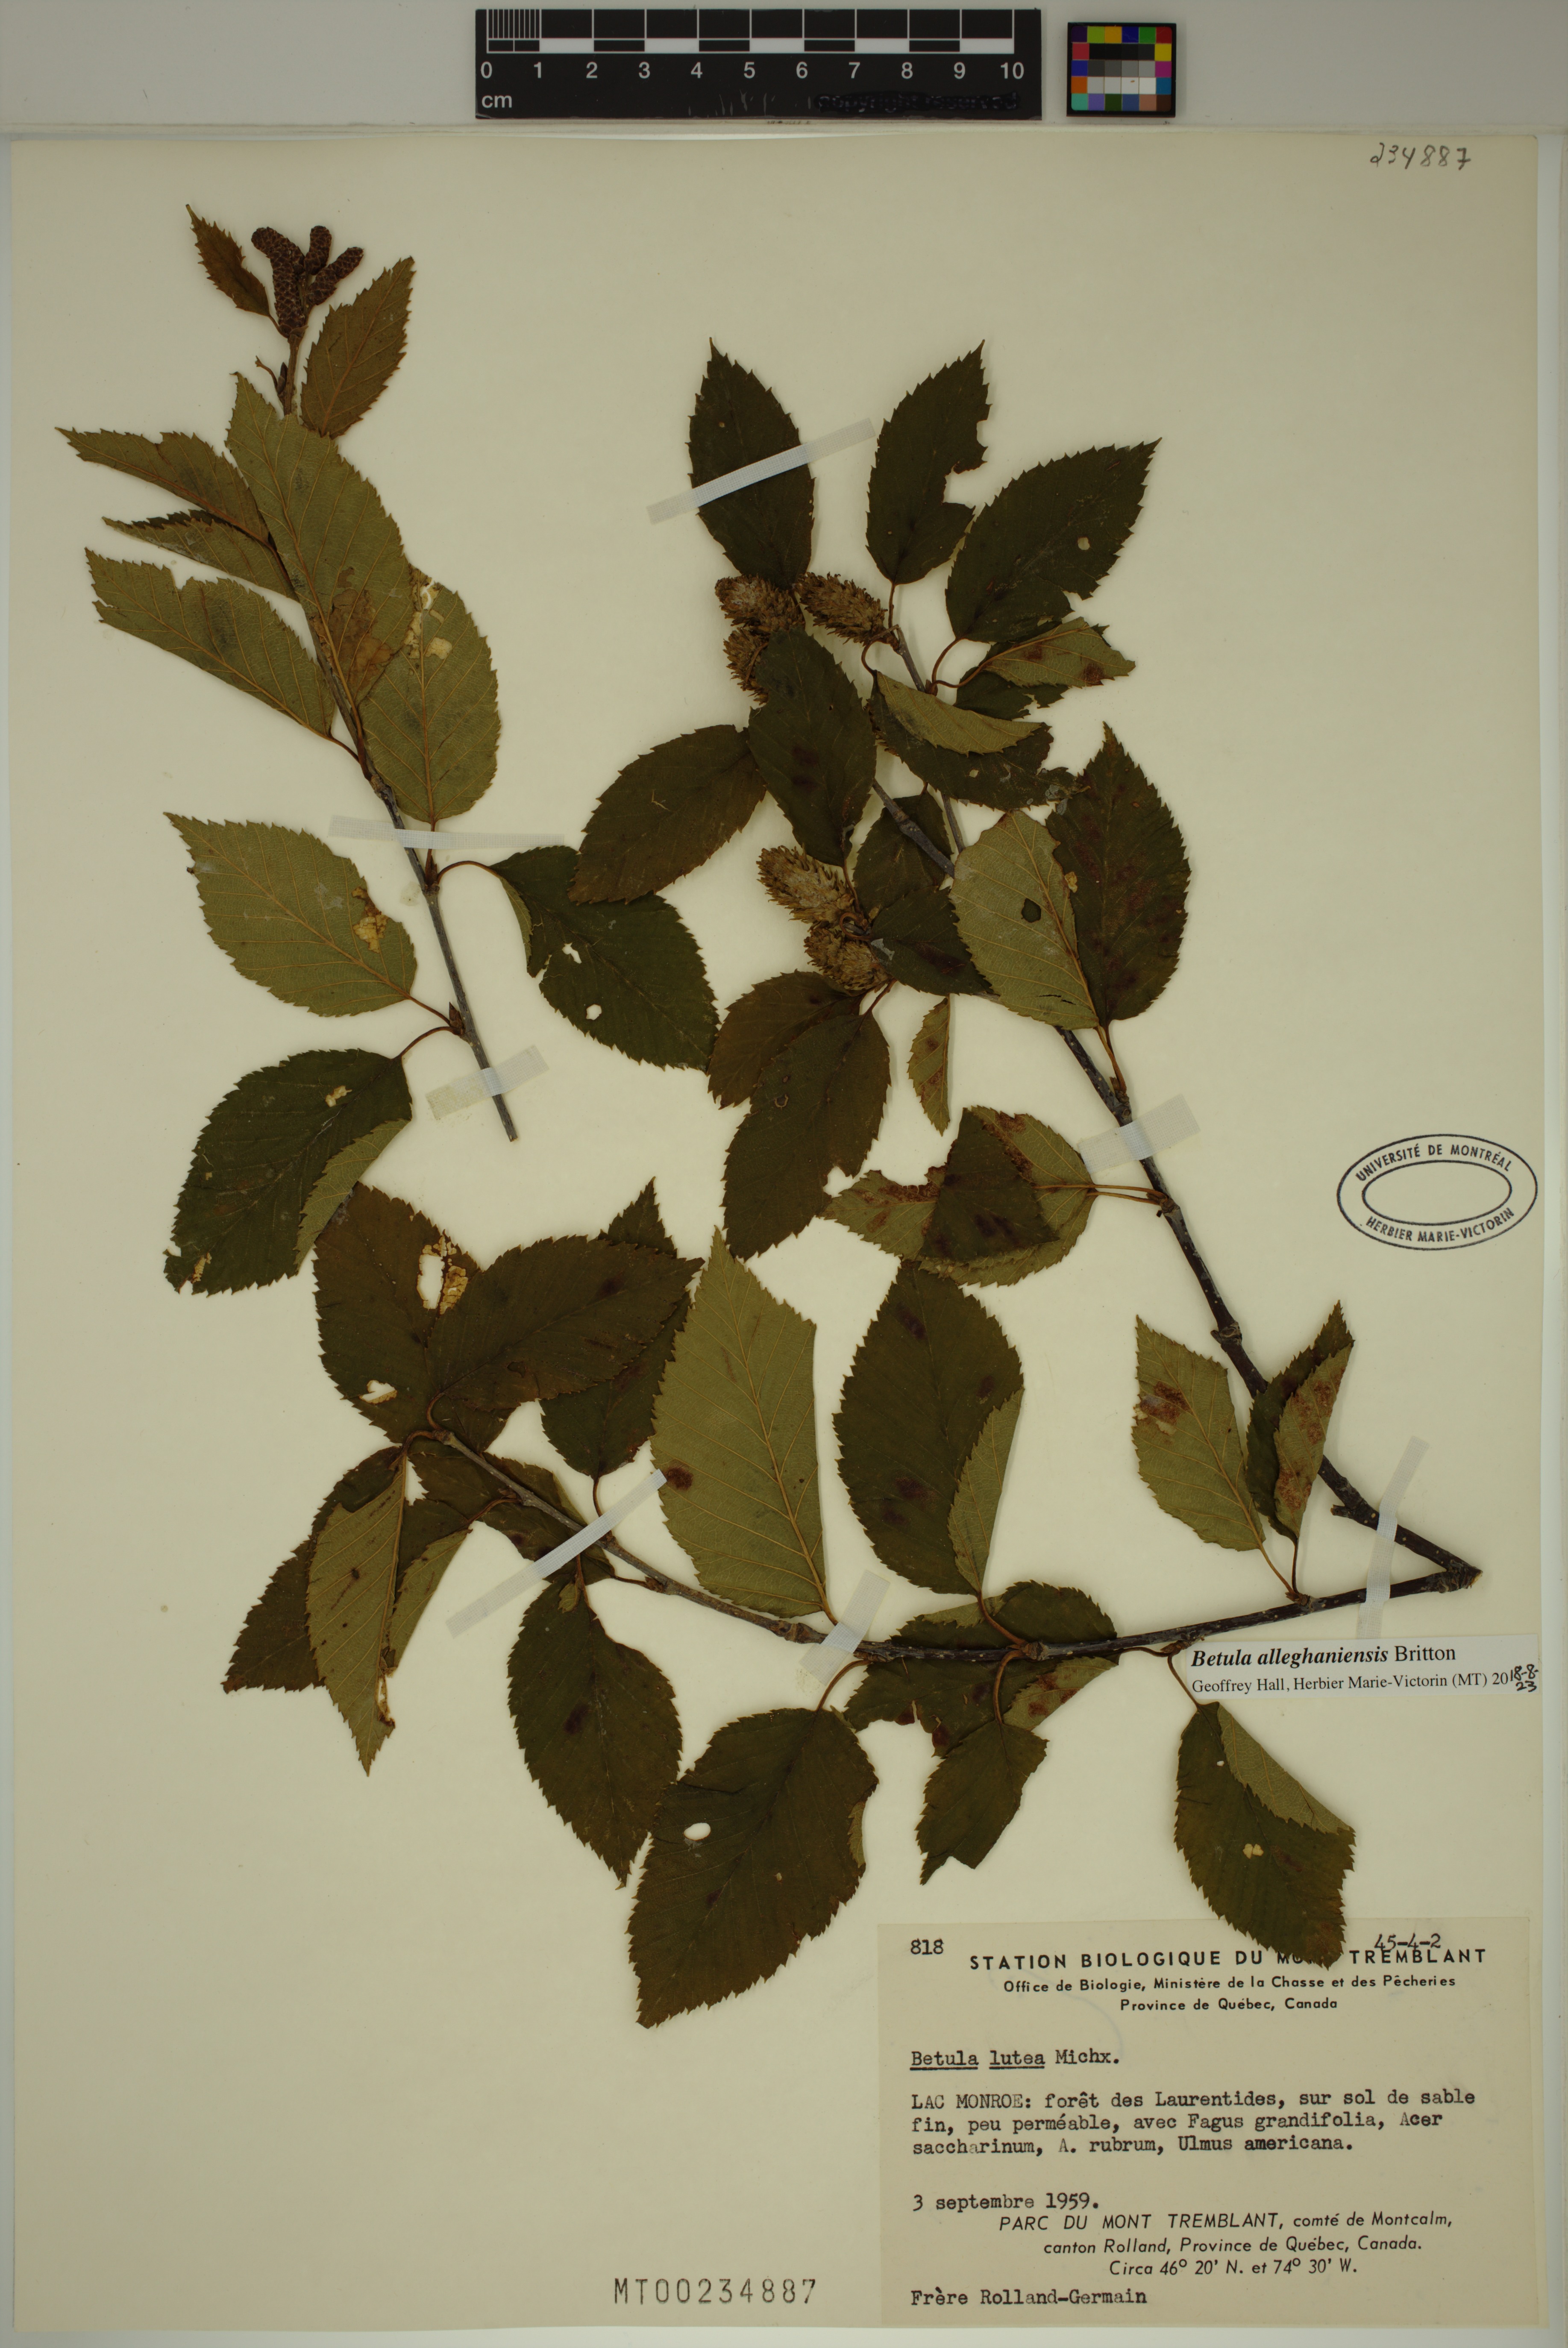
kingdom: Plantae
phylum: Tracheophyta
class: Magnoliopsida
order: Fagales
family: Betulaceae
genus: Betula
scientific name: Betula alleghaniensis
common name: Yellow birch
